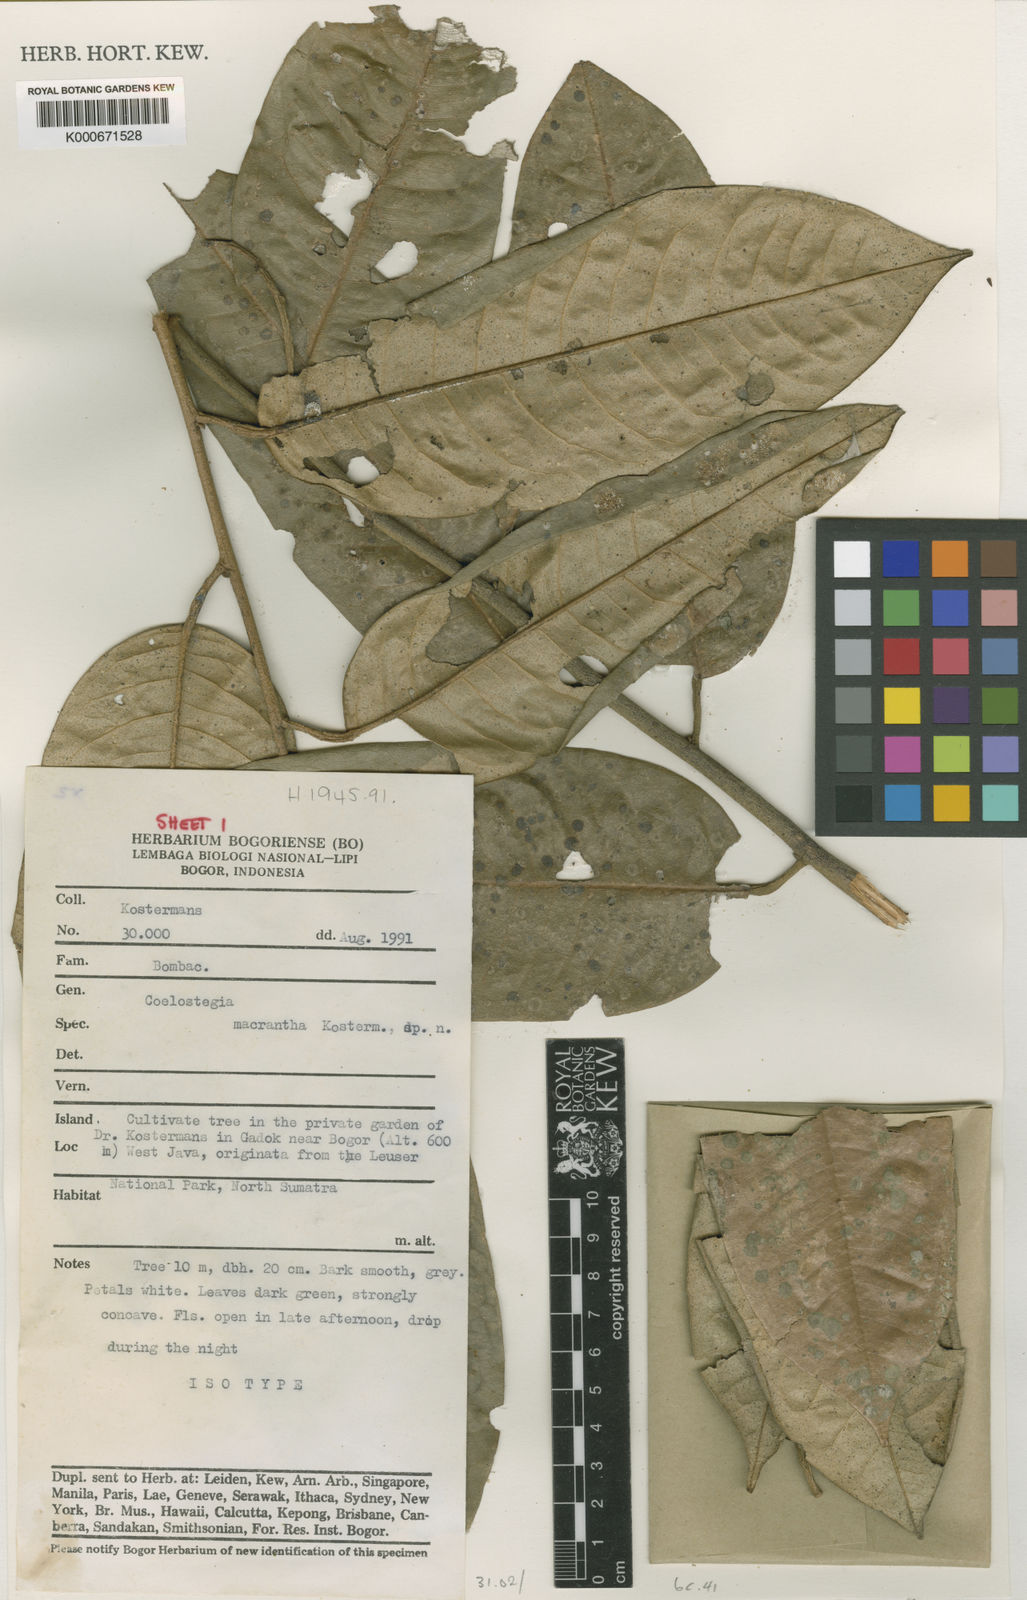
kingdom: Plantae
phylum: Tracheophyta
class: Magnoliopsida
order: Malvales
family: Malvaceae
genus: Coelostegia
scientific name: Coelostegia
